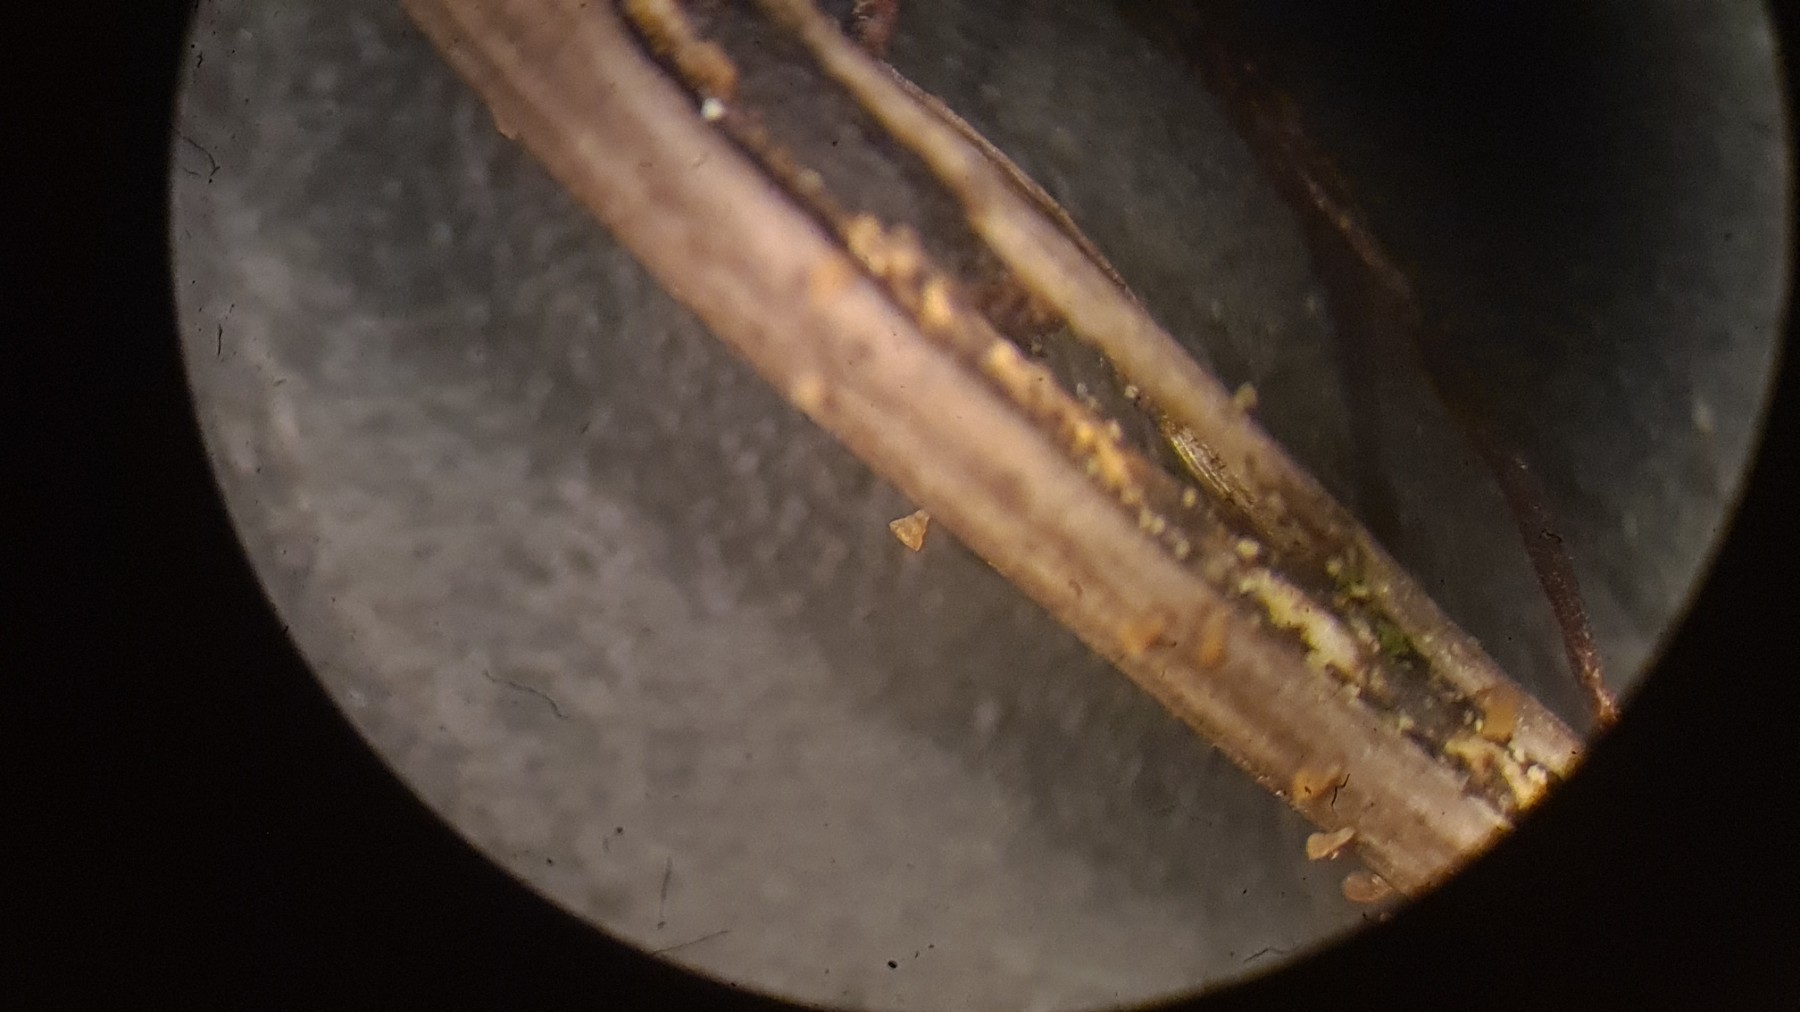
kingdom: Fungi
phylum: Ascomycota
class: Leotiomycetes
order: Helotiales
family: Pezizellaceae
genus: Allophylaria
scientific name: Allophylaria
